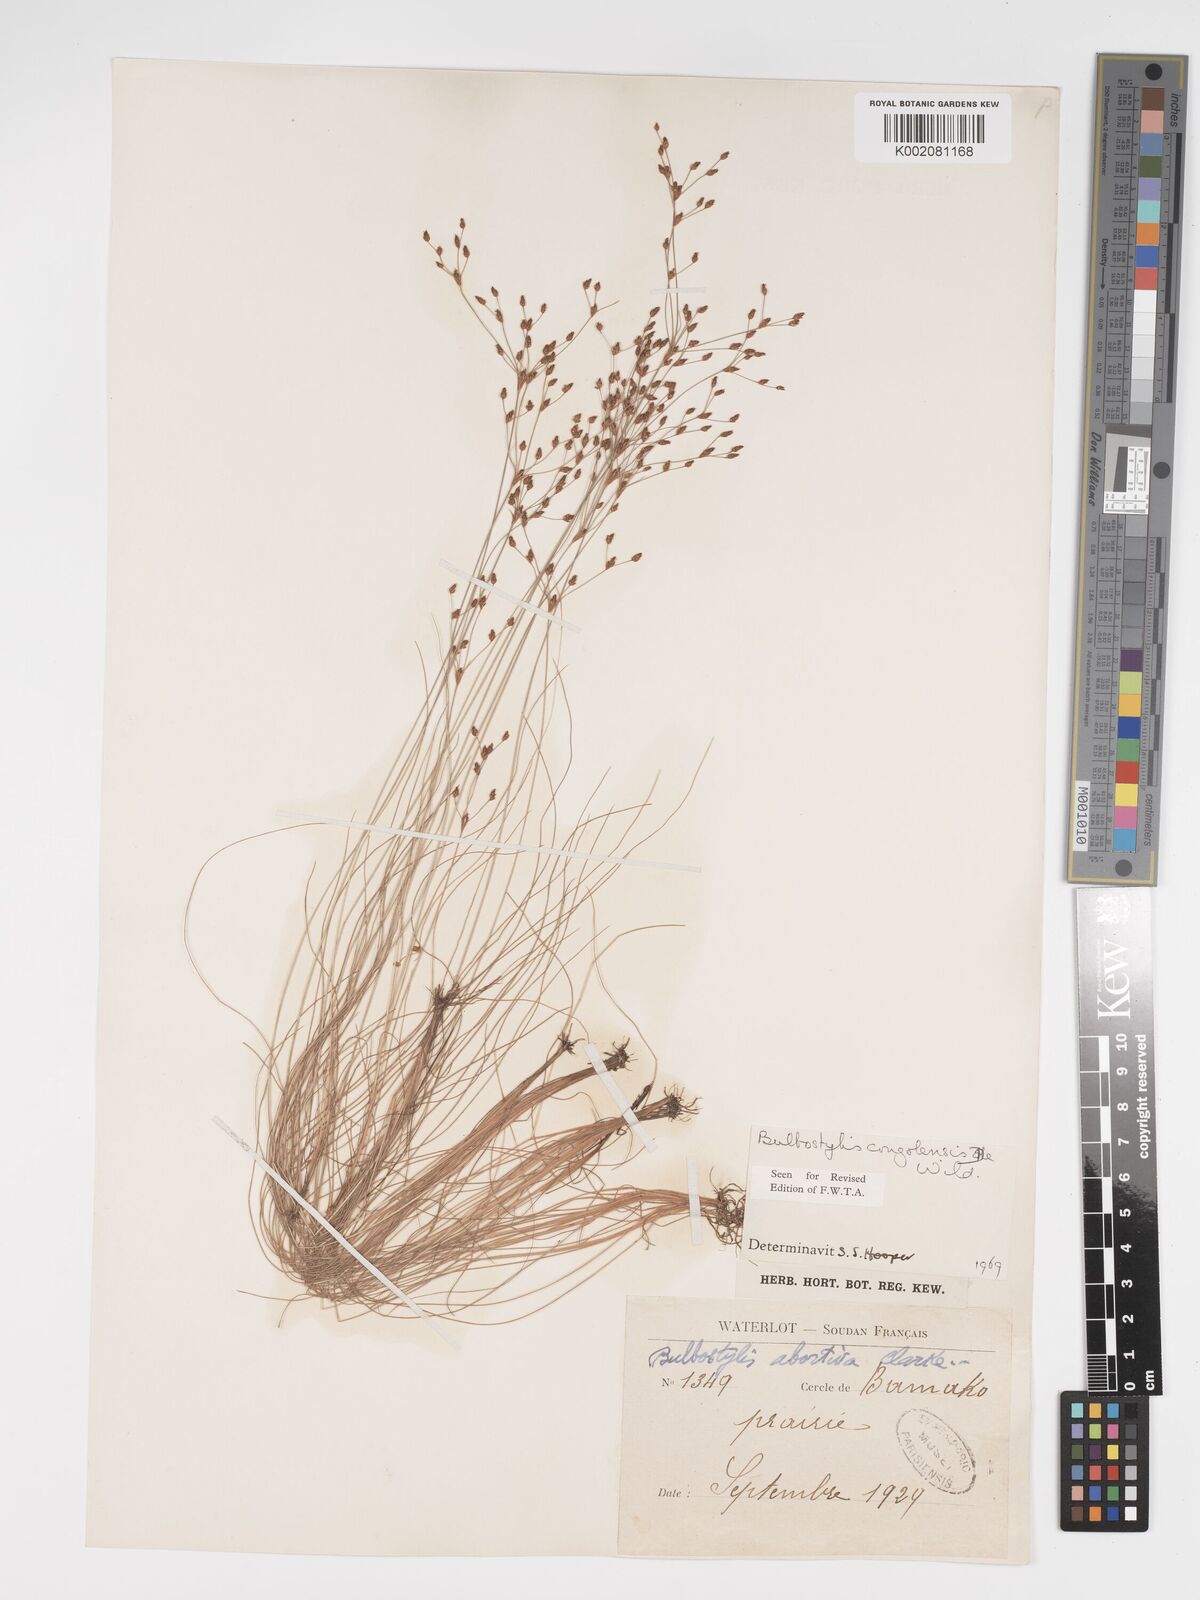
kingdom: Plantae
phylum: Tracheophyta
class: Liliopsida
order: Poales
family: Cyperaceae
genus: Bulbostylis
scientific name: Bulbostylis congolensis
